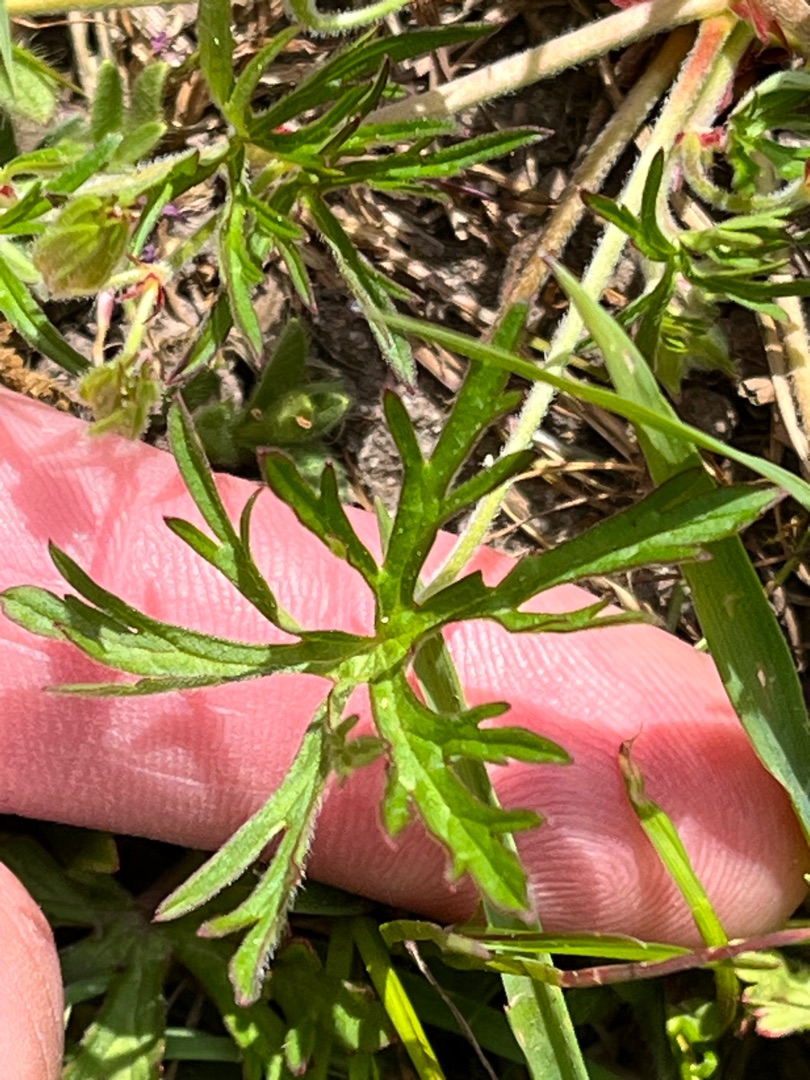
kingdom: Plantae
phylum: Tracheophyta
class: Magnoliopsida
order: Geraniales
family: Geraniaceae
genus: Geranium
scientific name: Geranium dissectum
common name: Kløftet storkenæb
